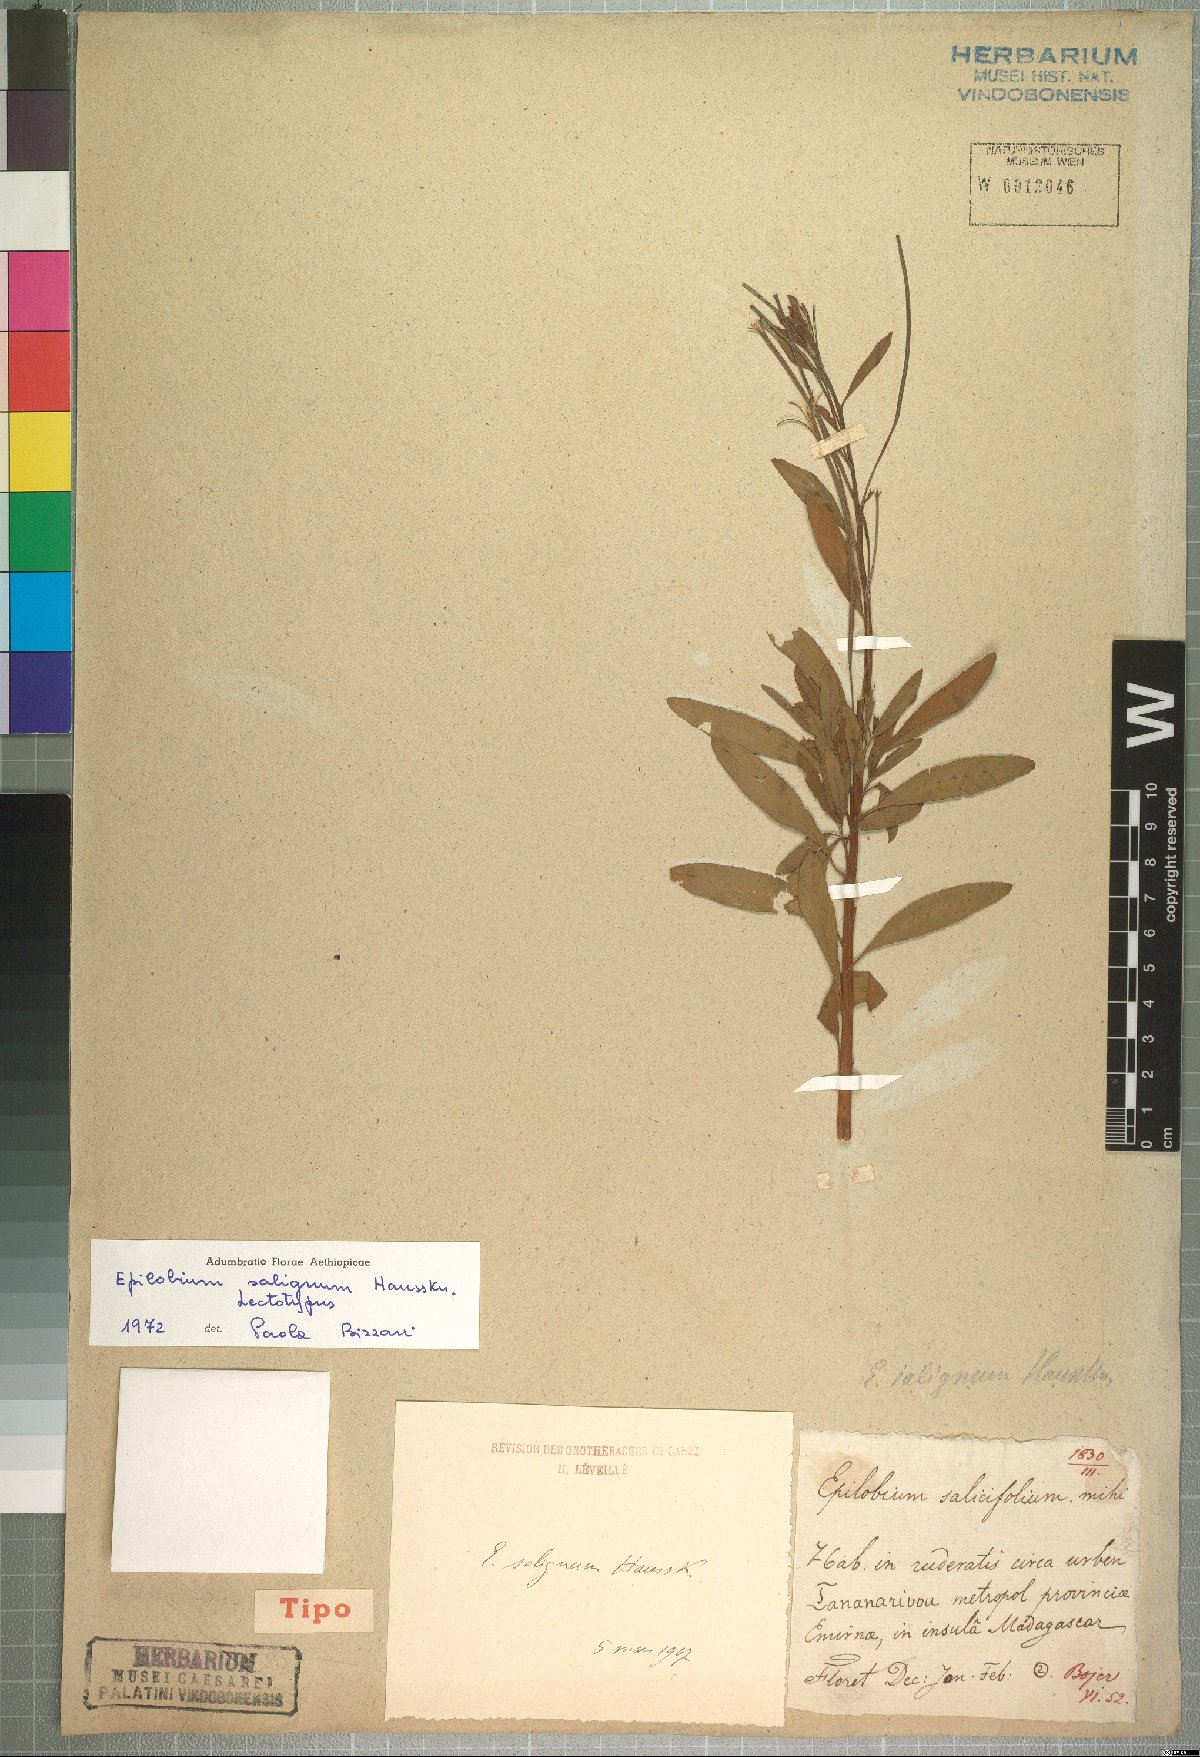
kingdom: Plantae
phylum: Tracheophyta
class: Magnoliopsida
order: Myrtales
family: Onagraceae
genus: Epilobium
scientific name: Epilobium salignum
